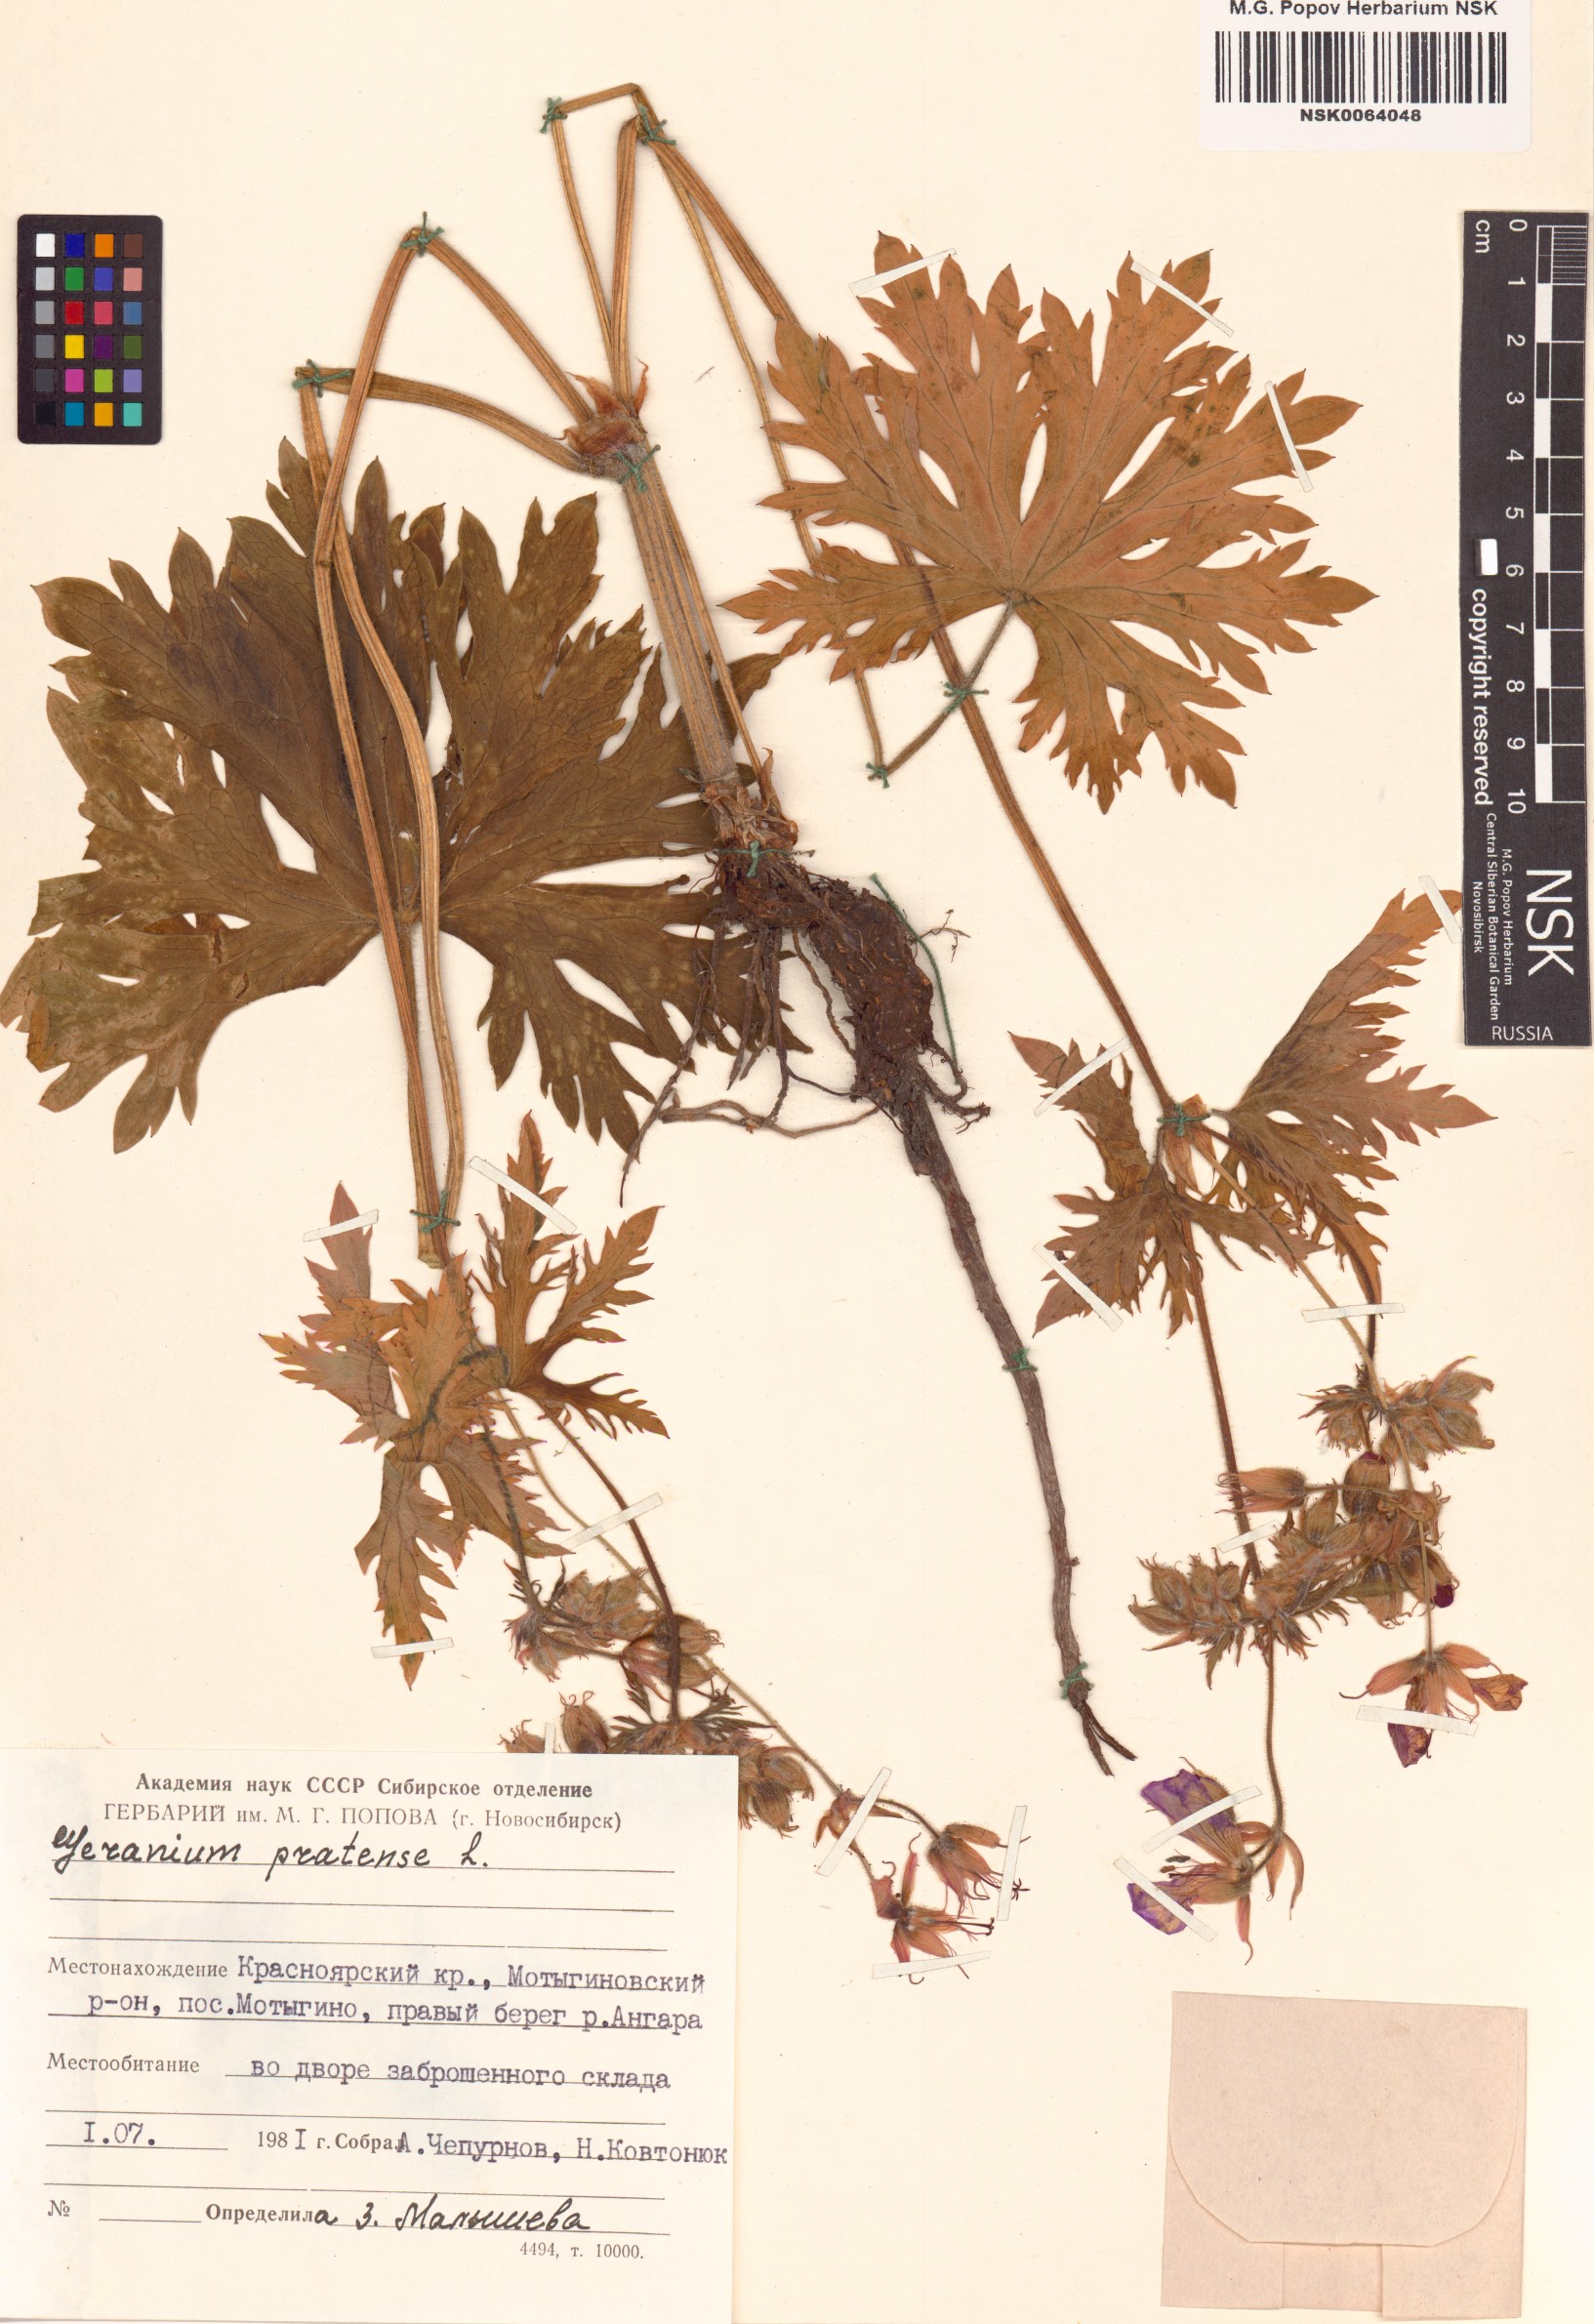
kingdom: Plantae
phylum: Tracheophyta
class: Magnoliopsida
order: Geraniales
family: Geraniaceae
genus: Geranium
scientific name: Geranium pratense
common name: Meadow crane's-bill
